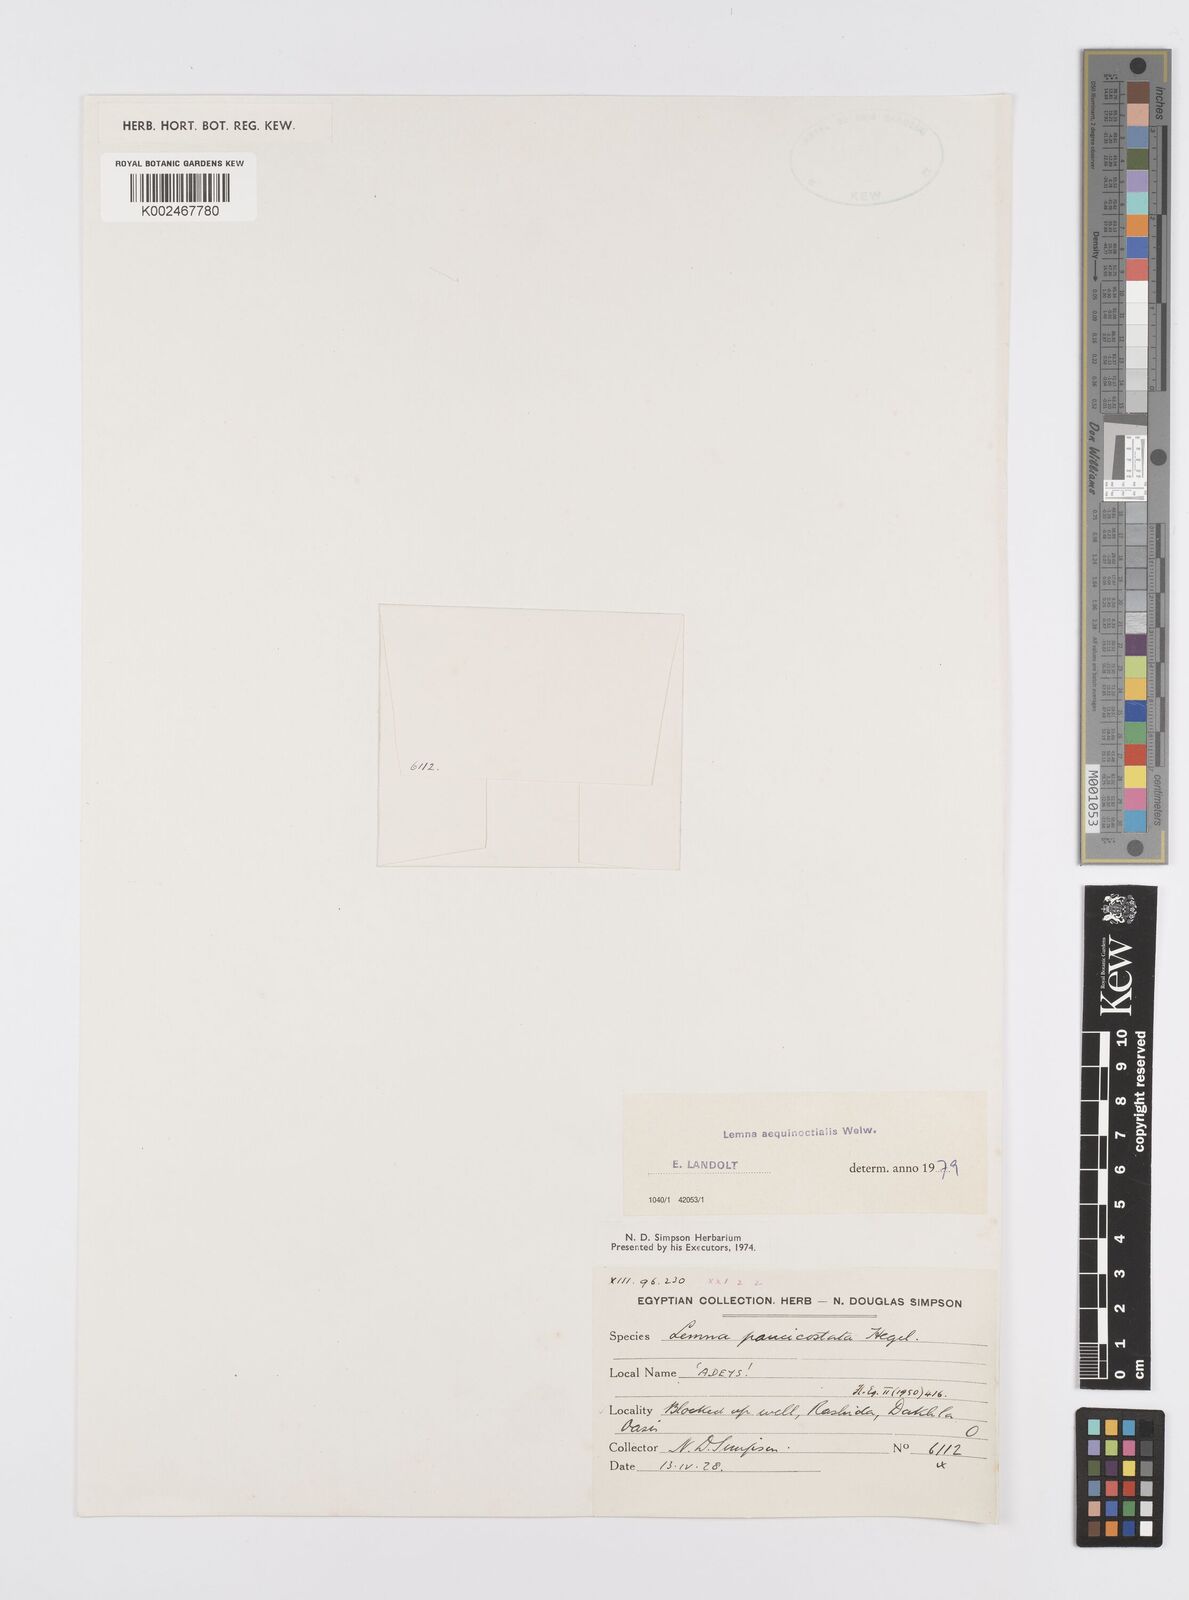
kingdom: Plantae
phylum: Tracheophyta
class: Liliopsida
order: Alismatales
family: Araceae
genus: Lemna
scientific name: Lemna aequinoctialis
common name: Duckweed
